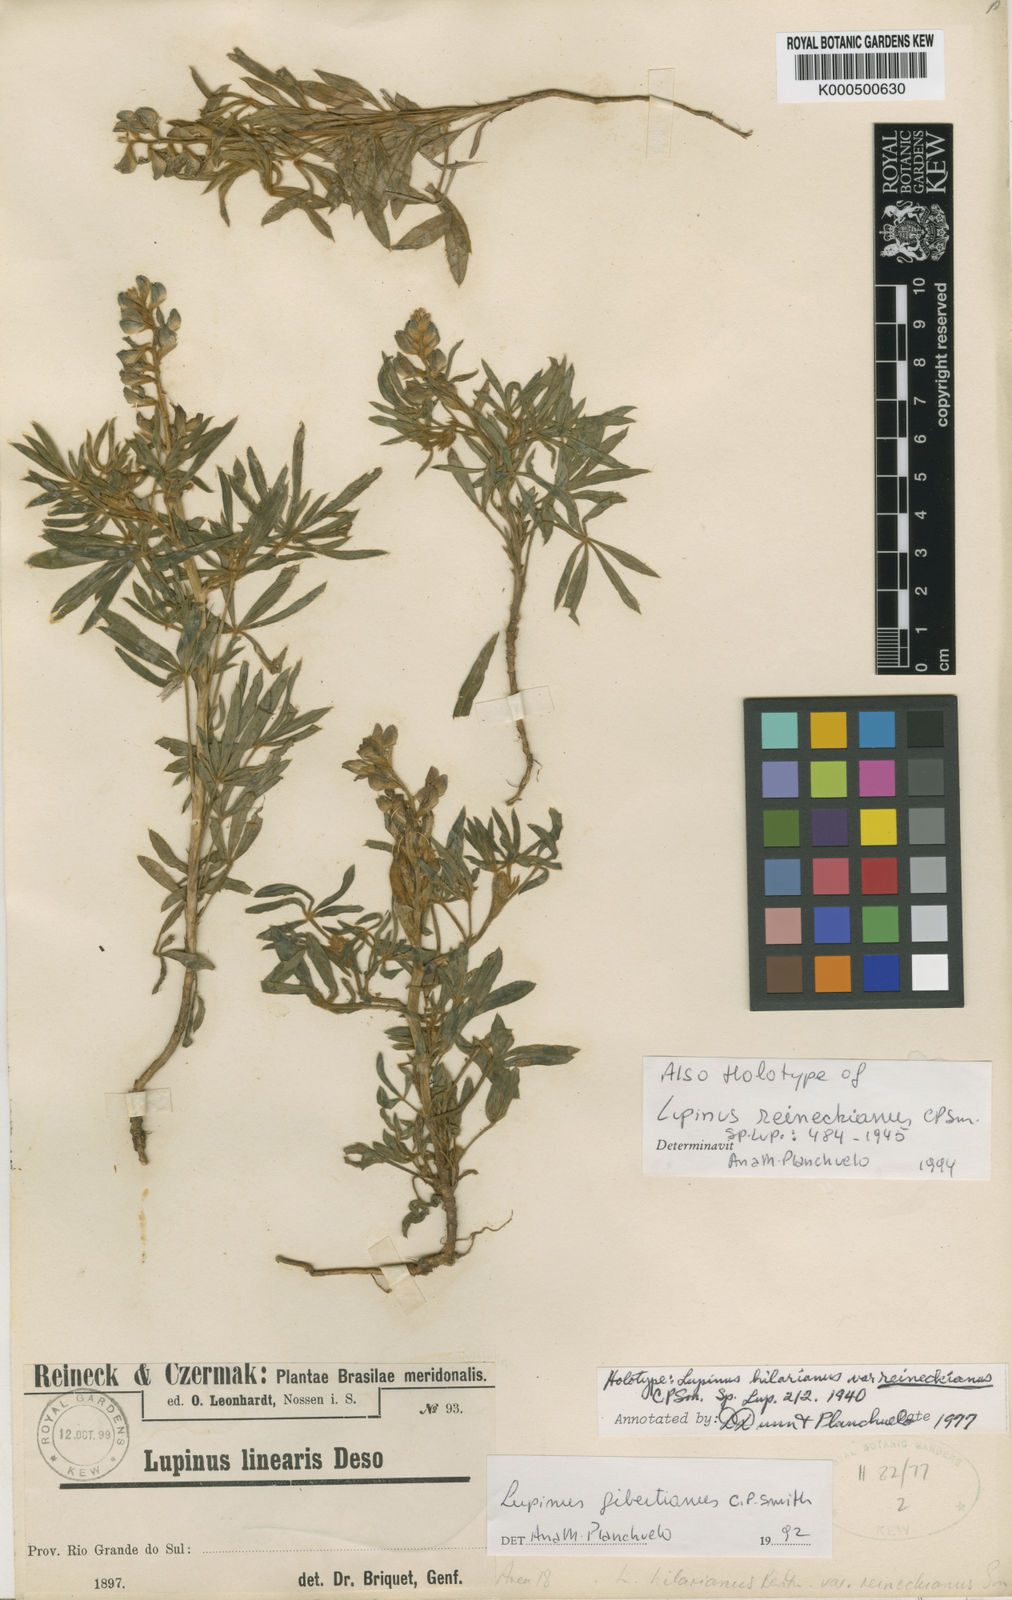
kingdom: Plantae
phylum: Tracheophyta
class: Magnoliopsida
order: Fabales
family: Fabaceae
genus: Lupinus
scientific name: Lupinus gibertianus
